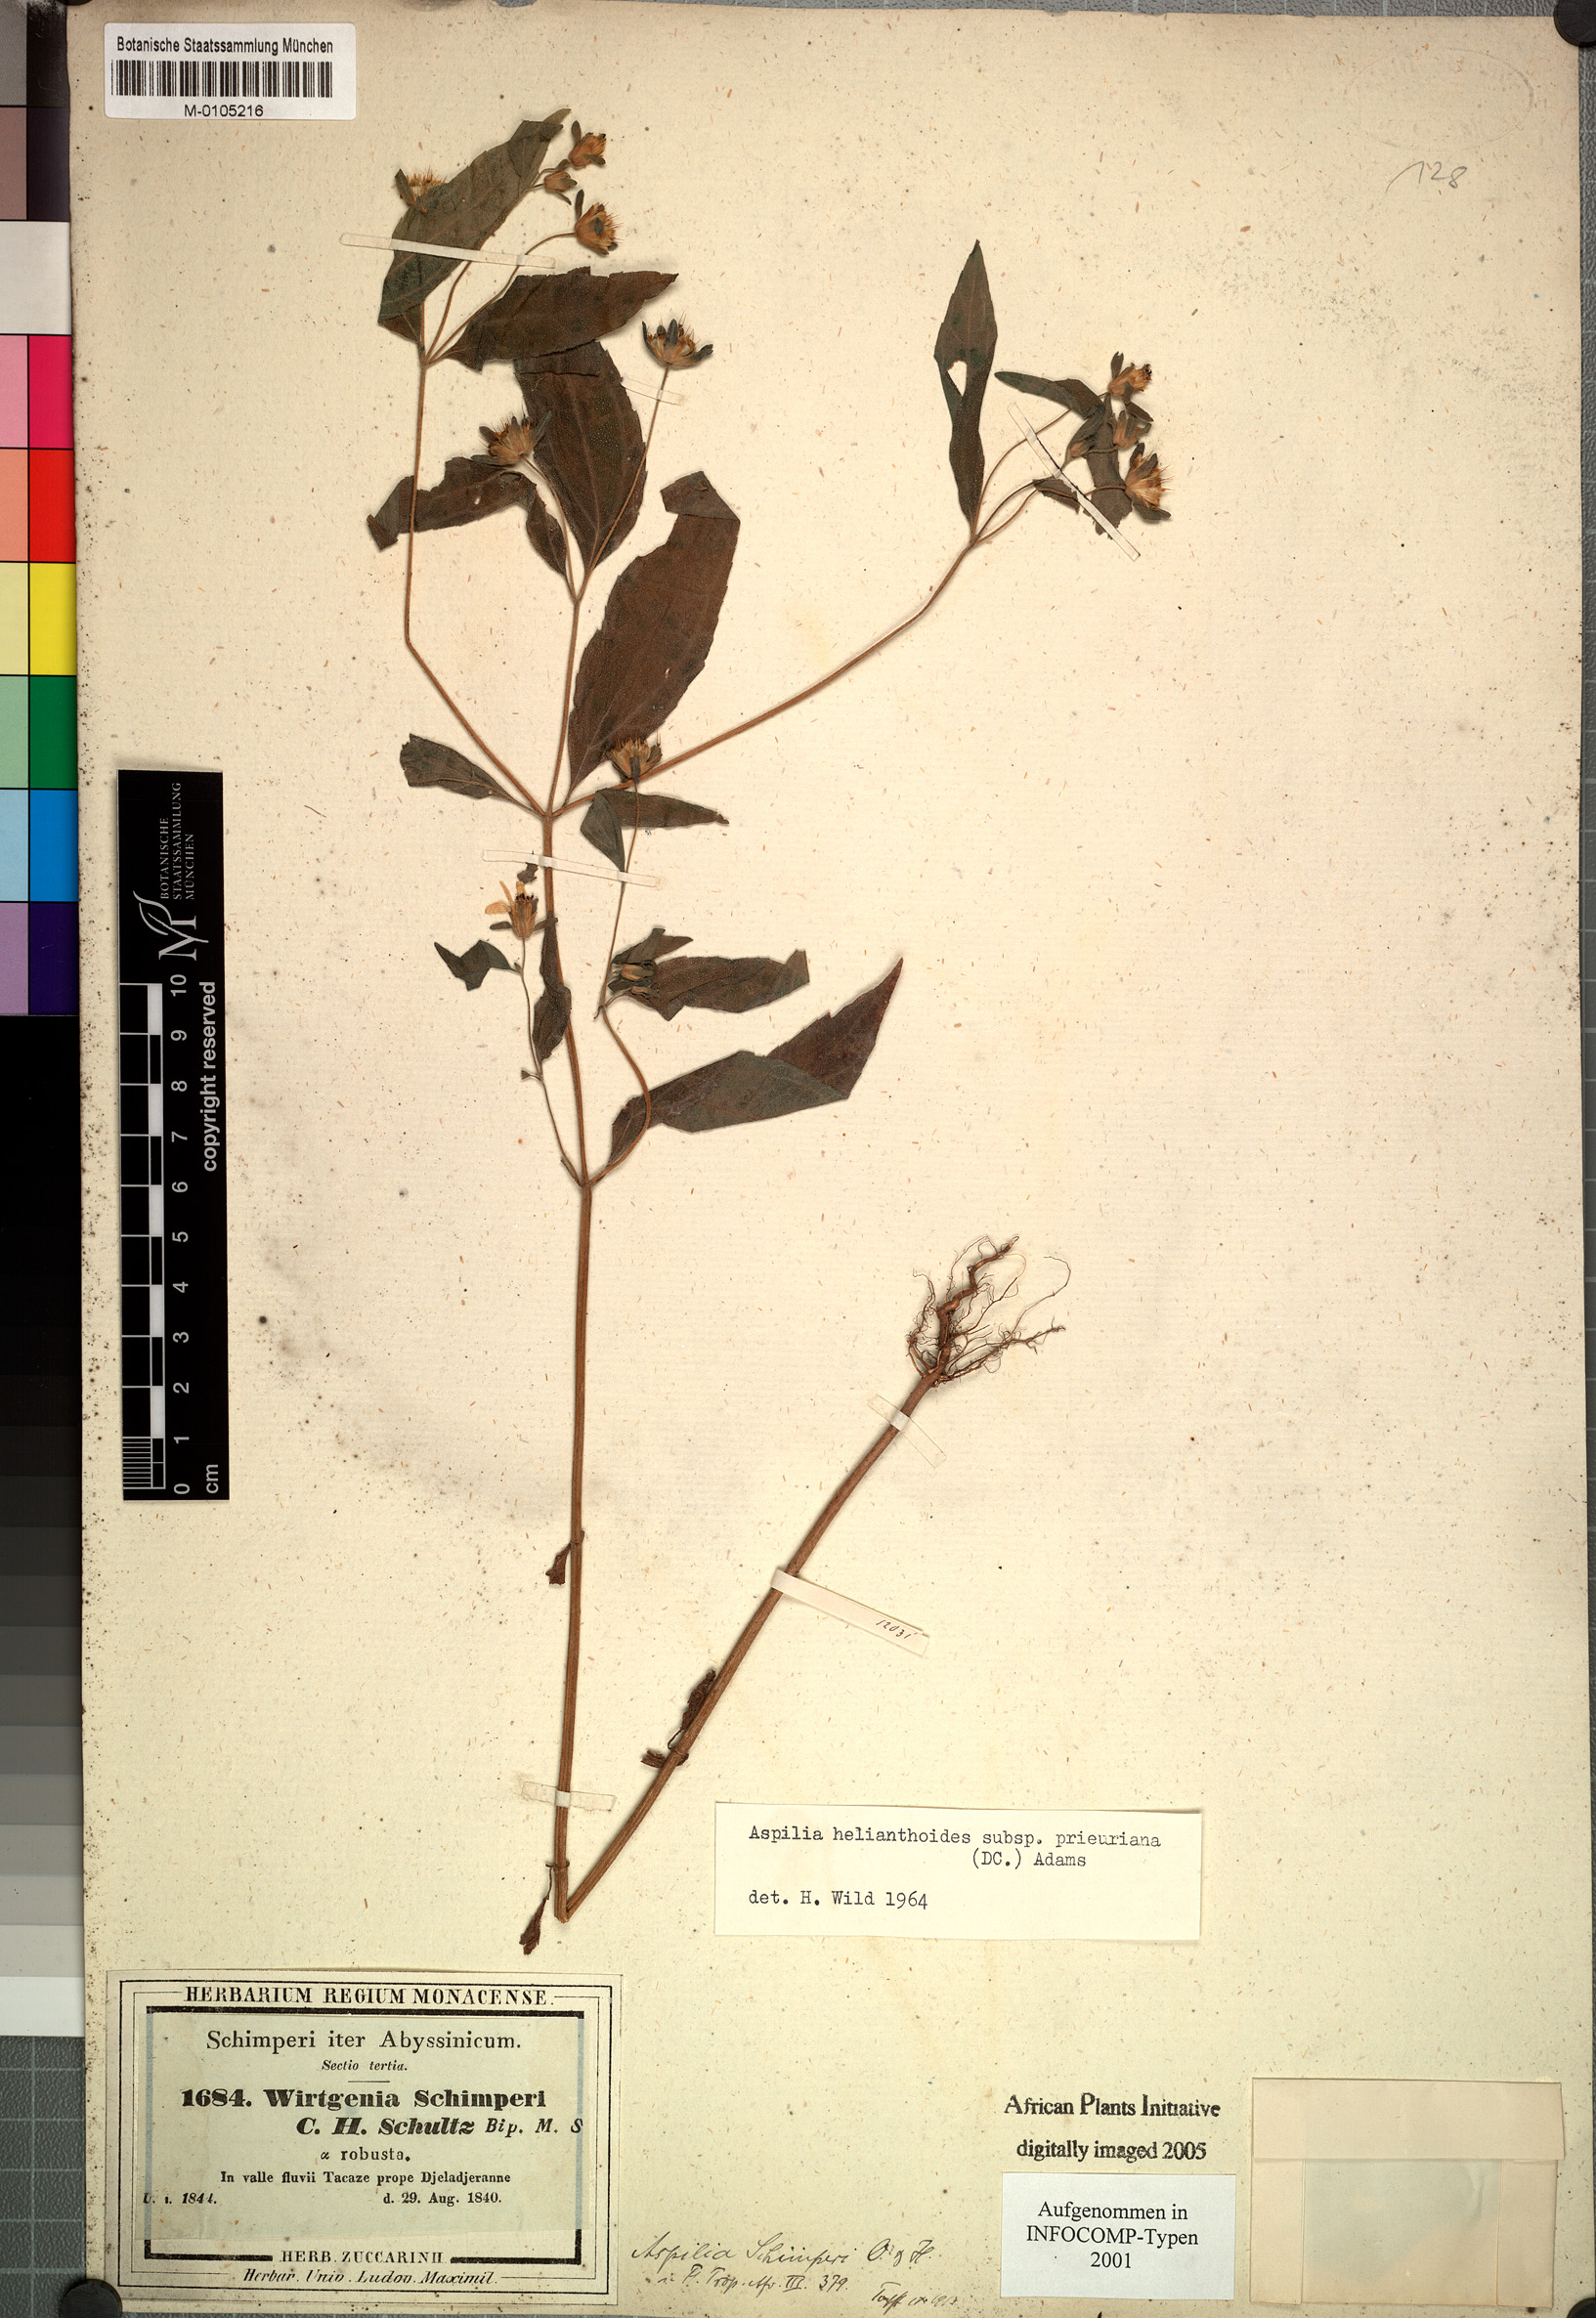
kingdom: Plantae
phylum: Tracheophyta
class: Magnoliopsida
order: Asterales
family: Asteraceae
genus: Aspilia
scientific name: Aspilia ciliata
